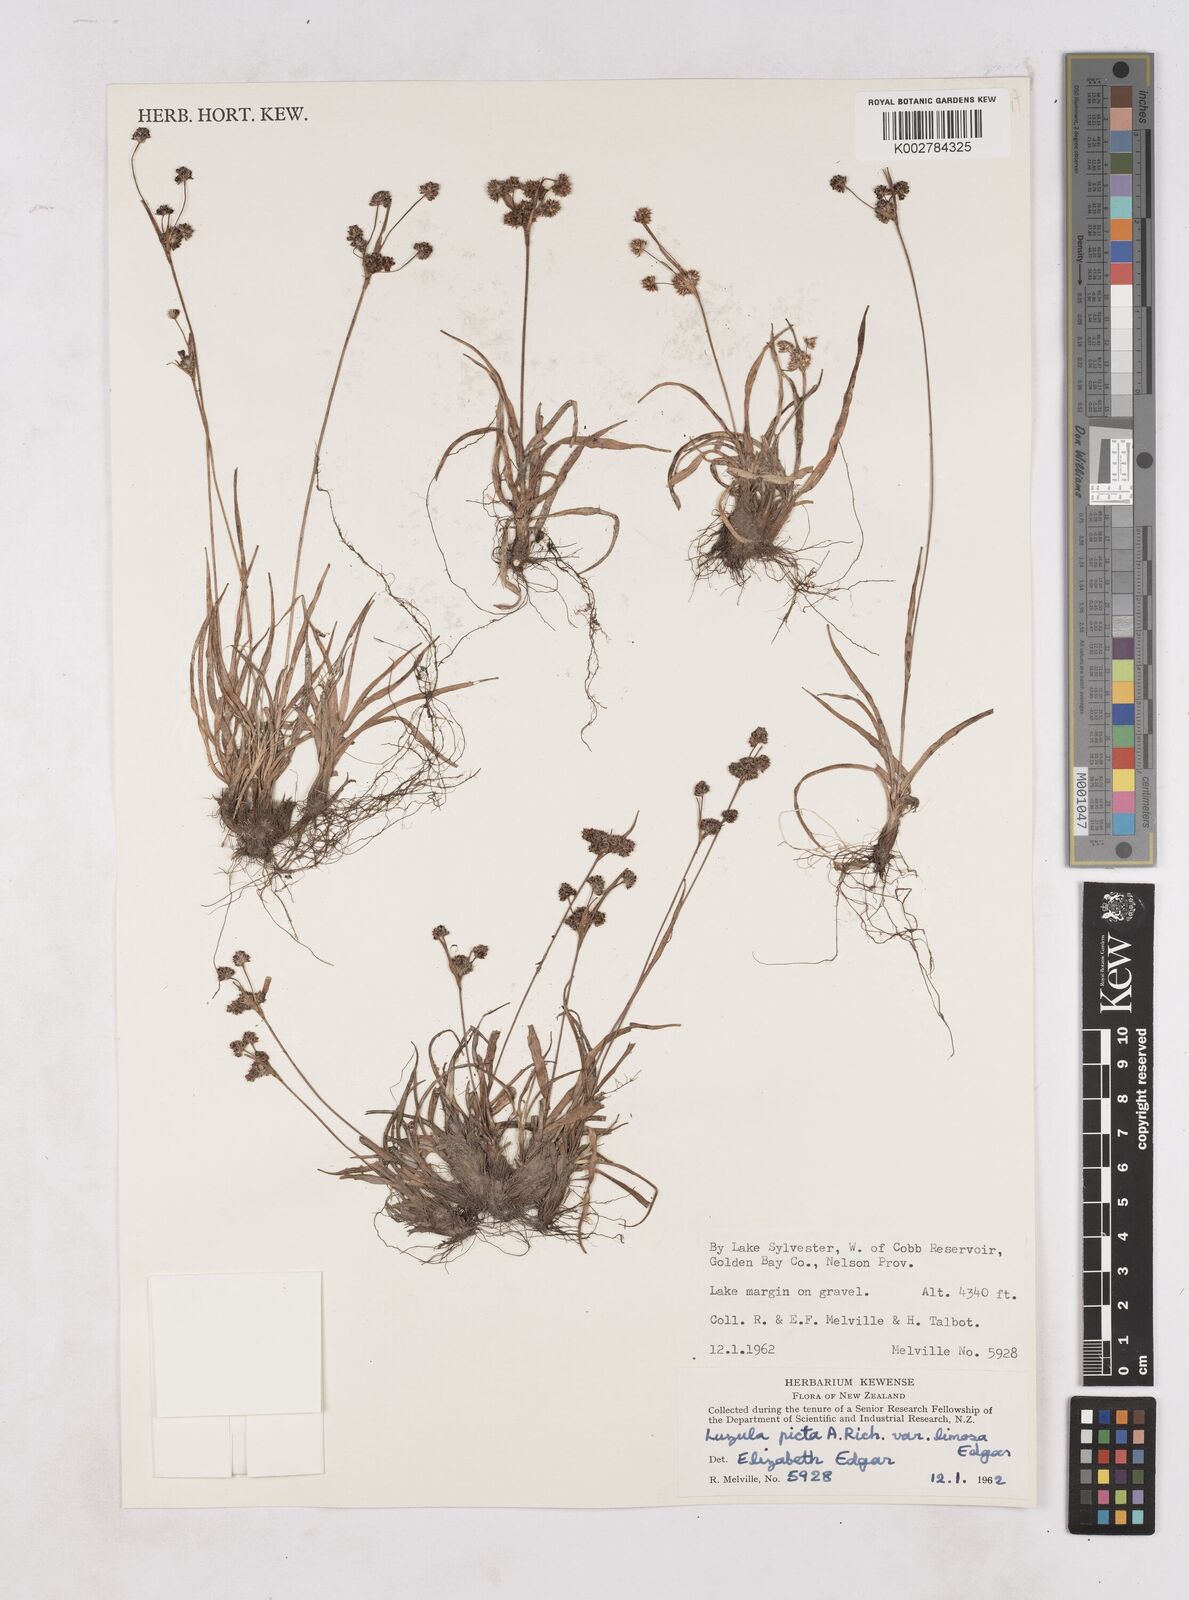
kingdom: Plantae
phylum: Tracheophyta
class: Liliopsida
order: Poales
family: Juncaceae
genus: Luzula
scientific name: Luzula picta
